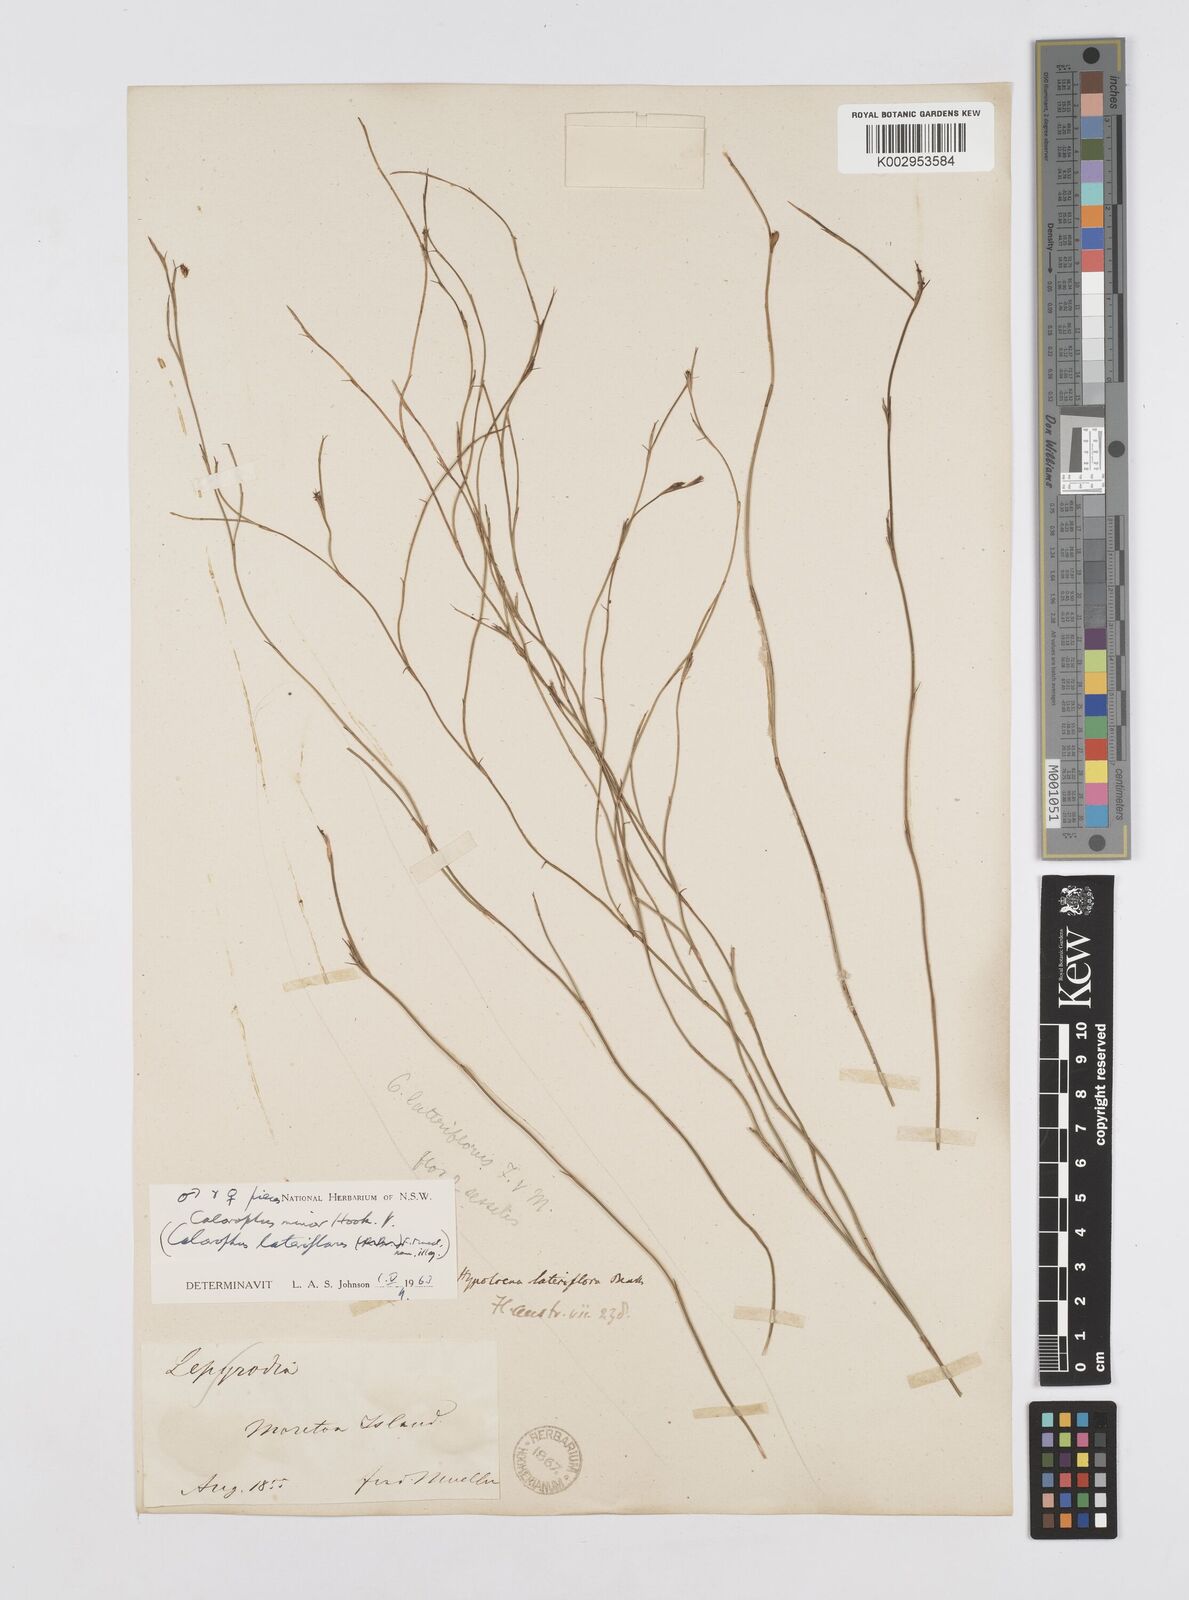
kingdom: Plantae
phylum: Tracheophyta
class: Liliopsida
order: Poales
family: Restionaceae
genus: Empodisma
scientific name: Empodisma minus
